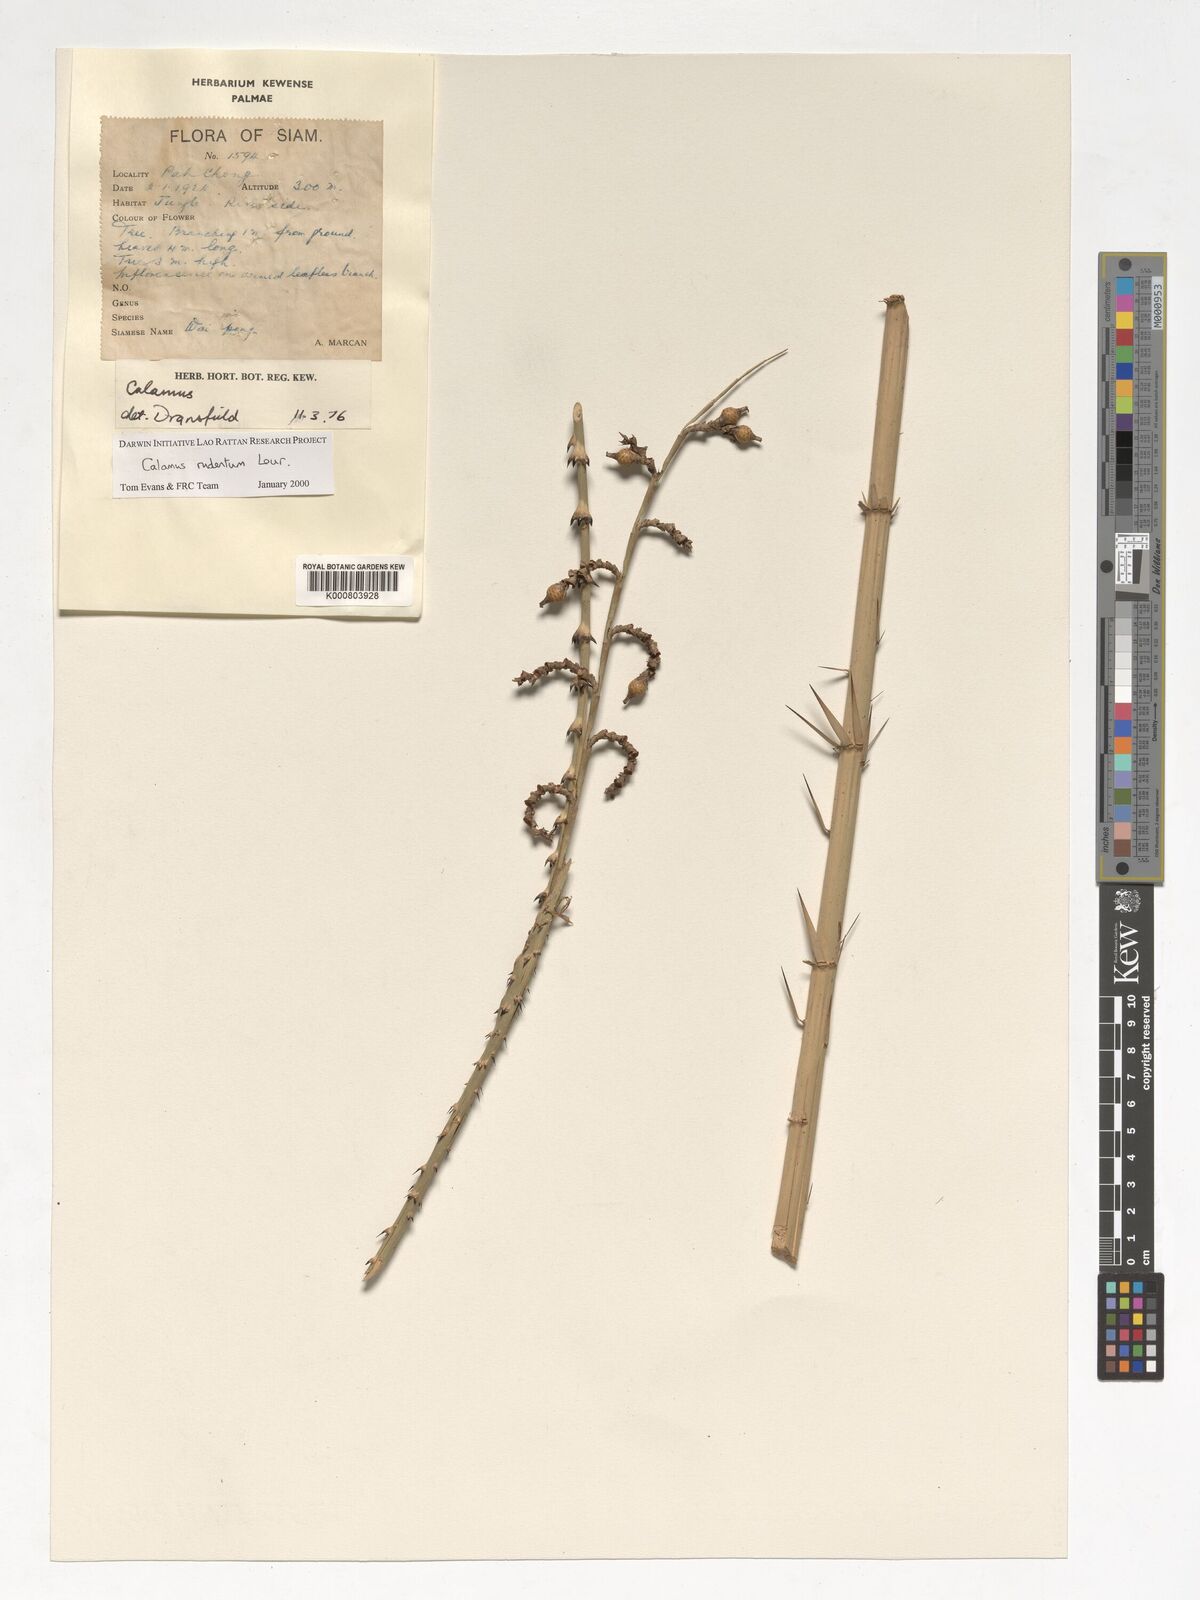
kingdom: Plantae
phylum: Tracheophyta
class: Liliopsida
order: Arecales
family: Arecaceae
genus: Calamus
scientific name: Calamus rudentum
